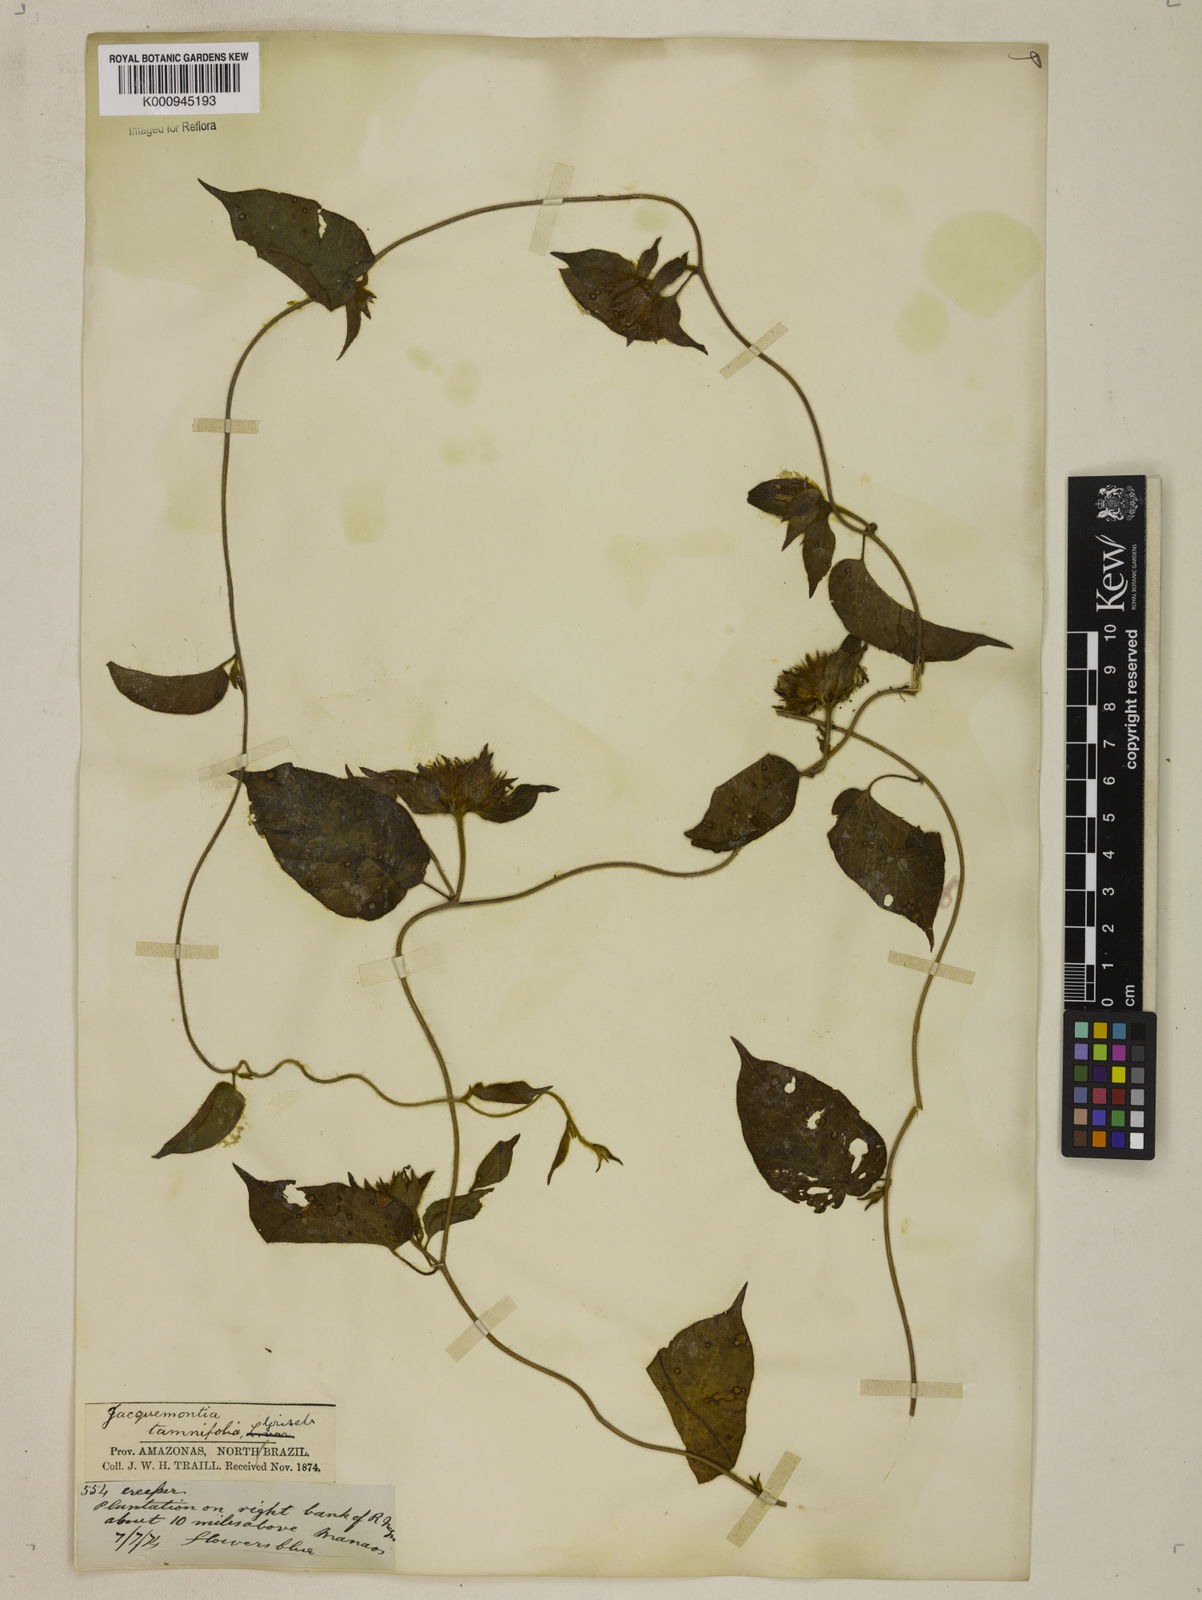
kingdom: Plantae
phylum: Tracheophyta
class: Magnoliopsida
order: Solanales
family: Convolvulaceae
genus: Jacquemontia
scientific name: Jacquemontia tamnifolia
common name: Hairy clustervine
